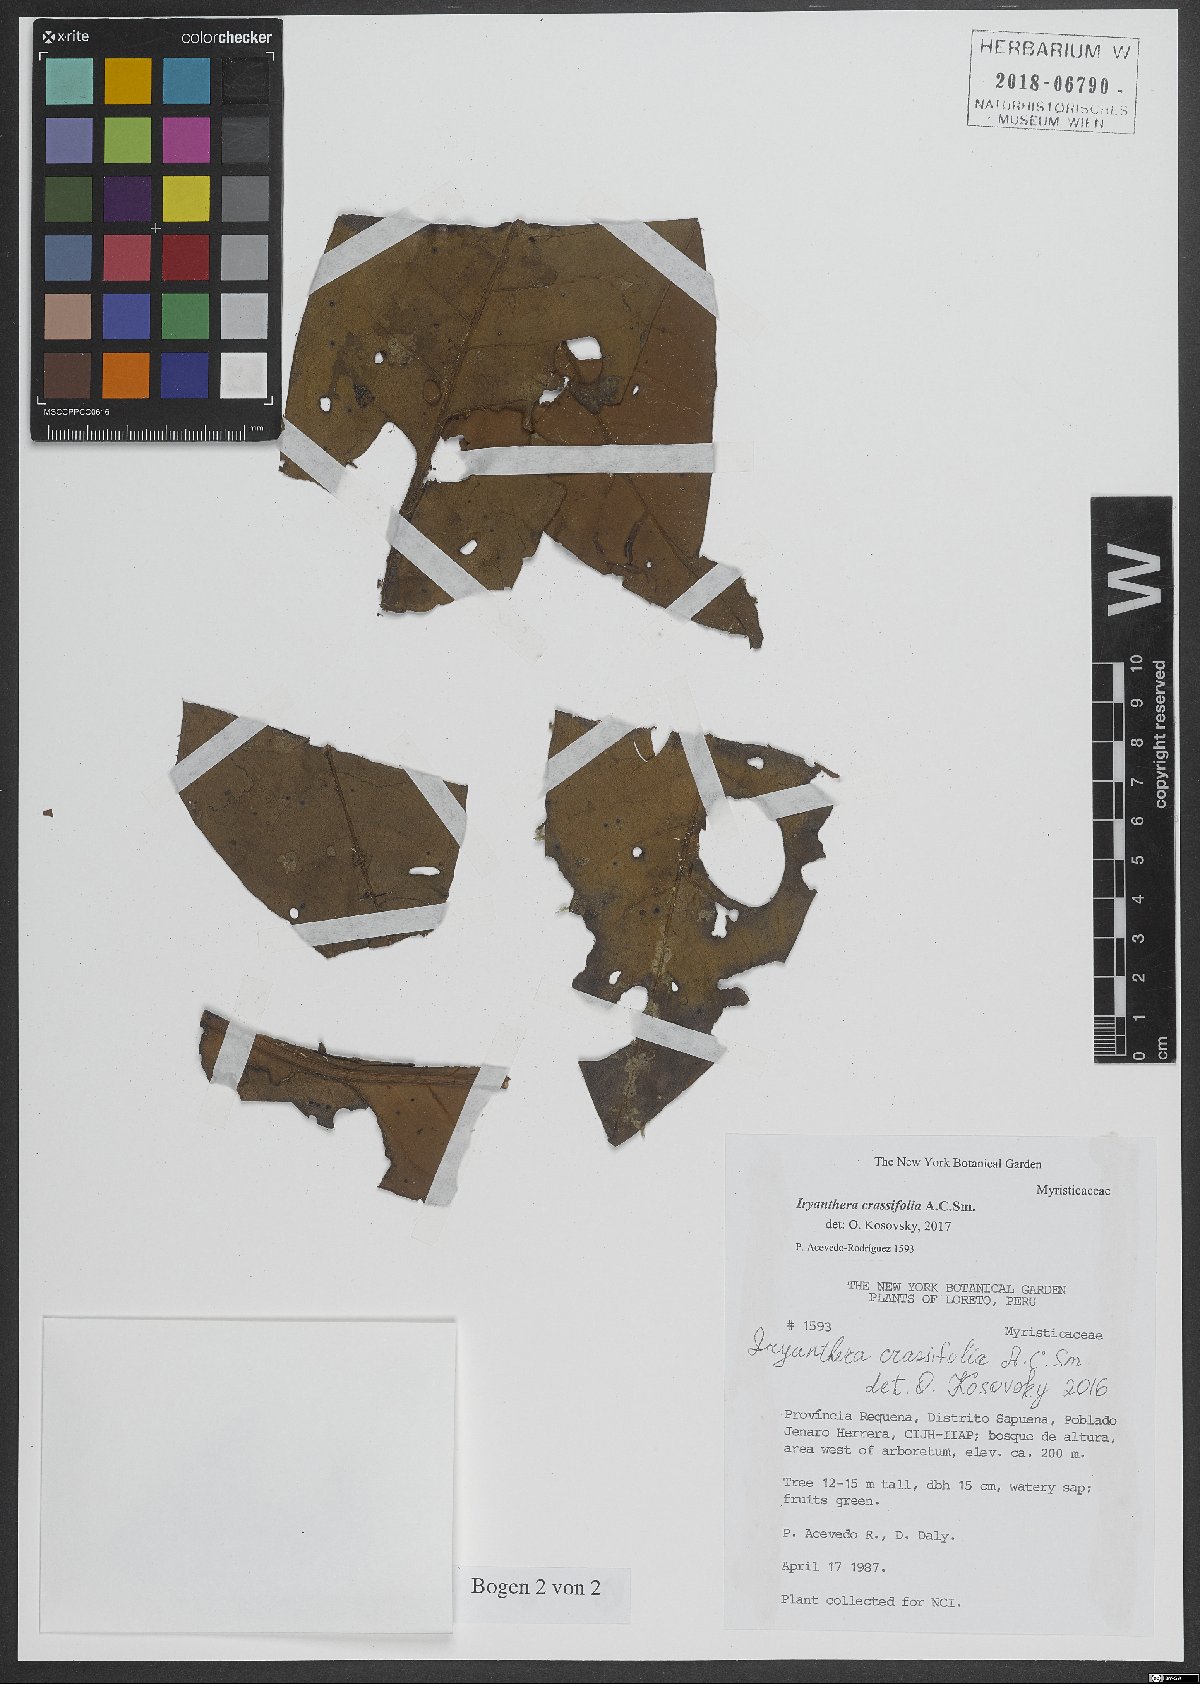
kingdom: Plantae
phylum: Tracheophyta
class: Magnoliopsida
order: Magnoliales
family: Myristicaceae
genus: Iryanthera
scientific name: Iryanthera crassifolia
